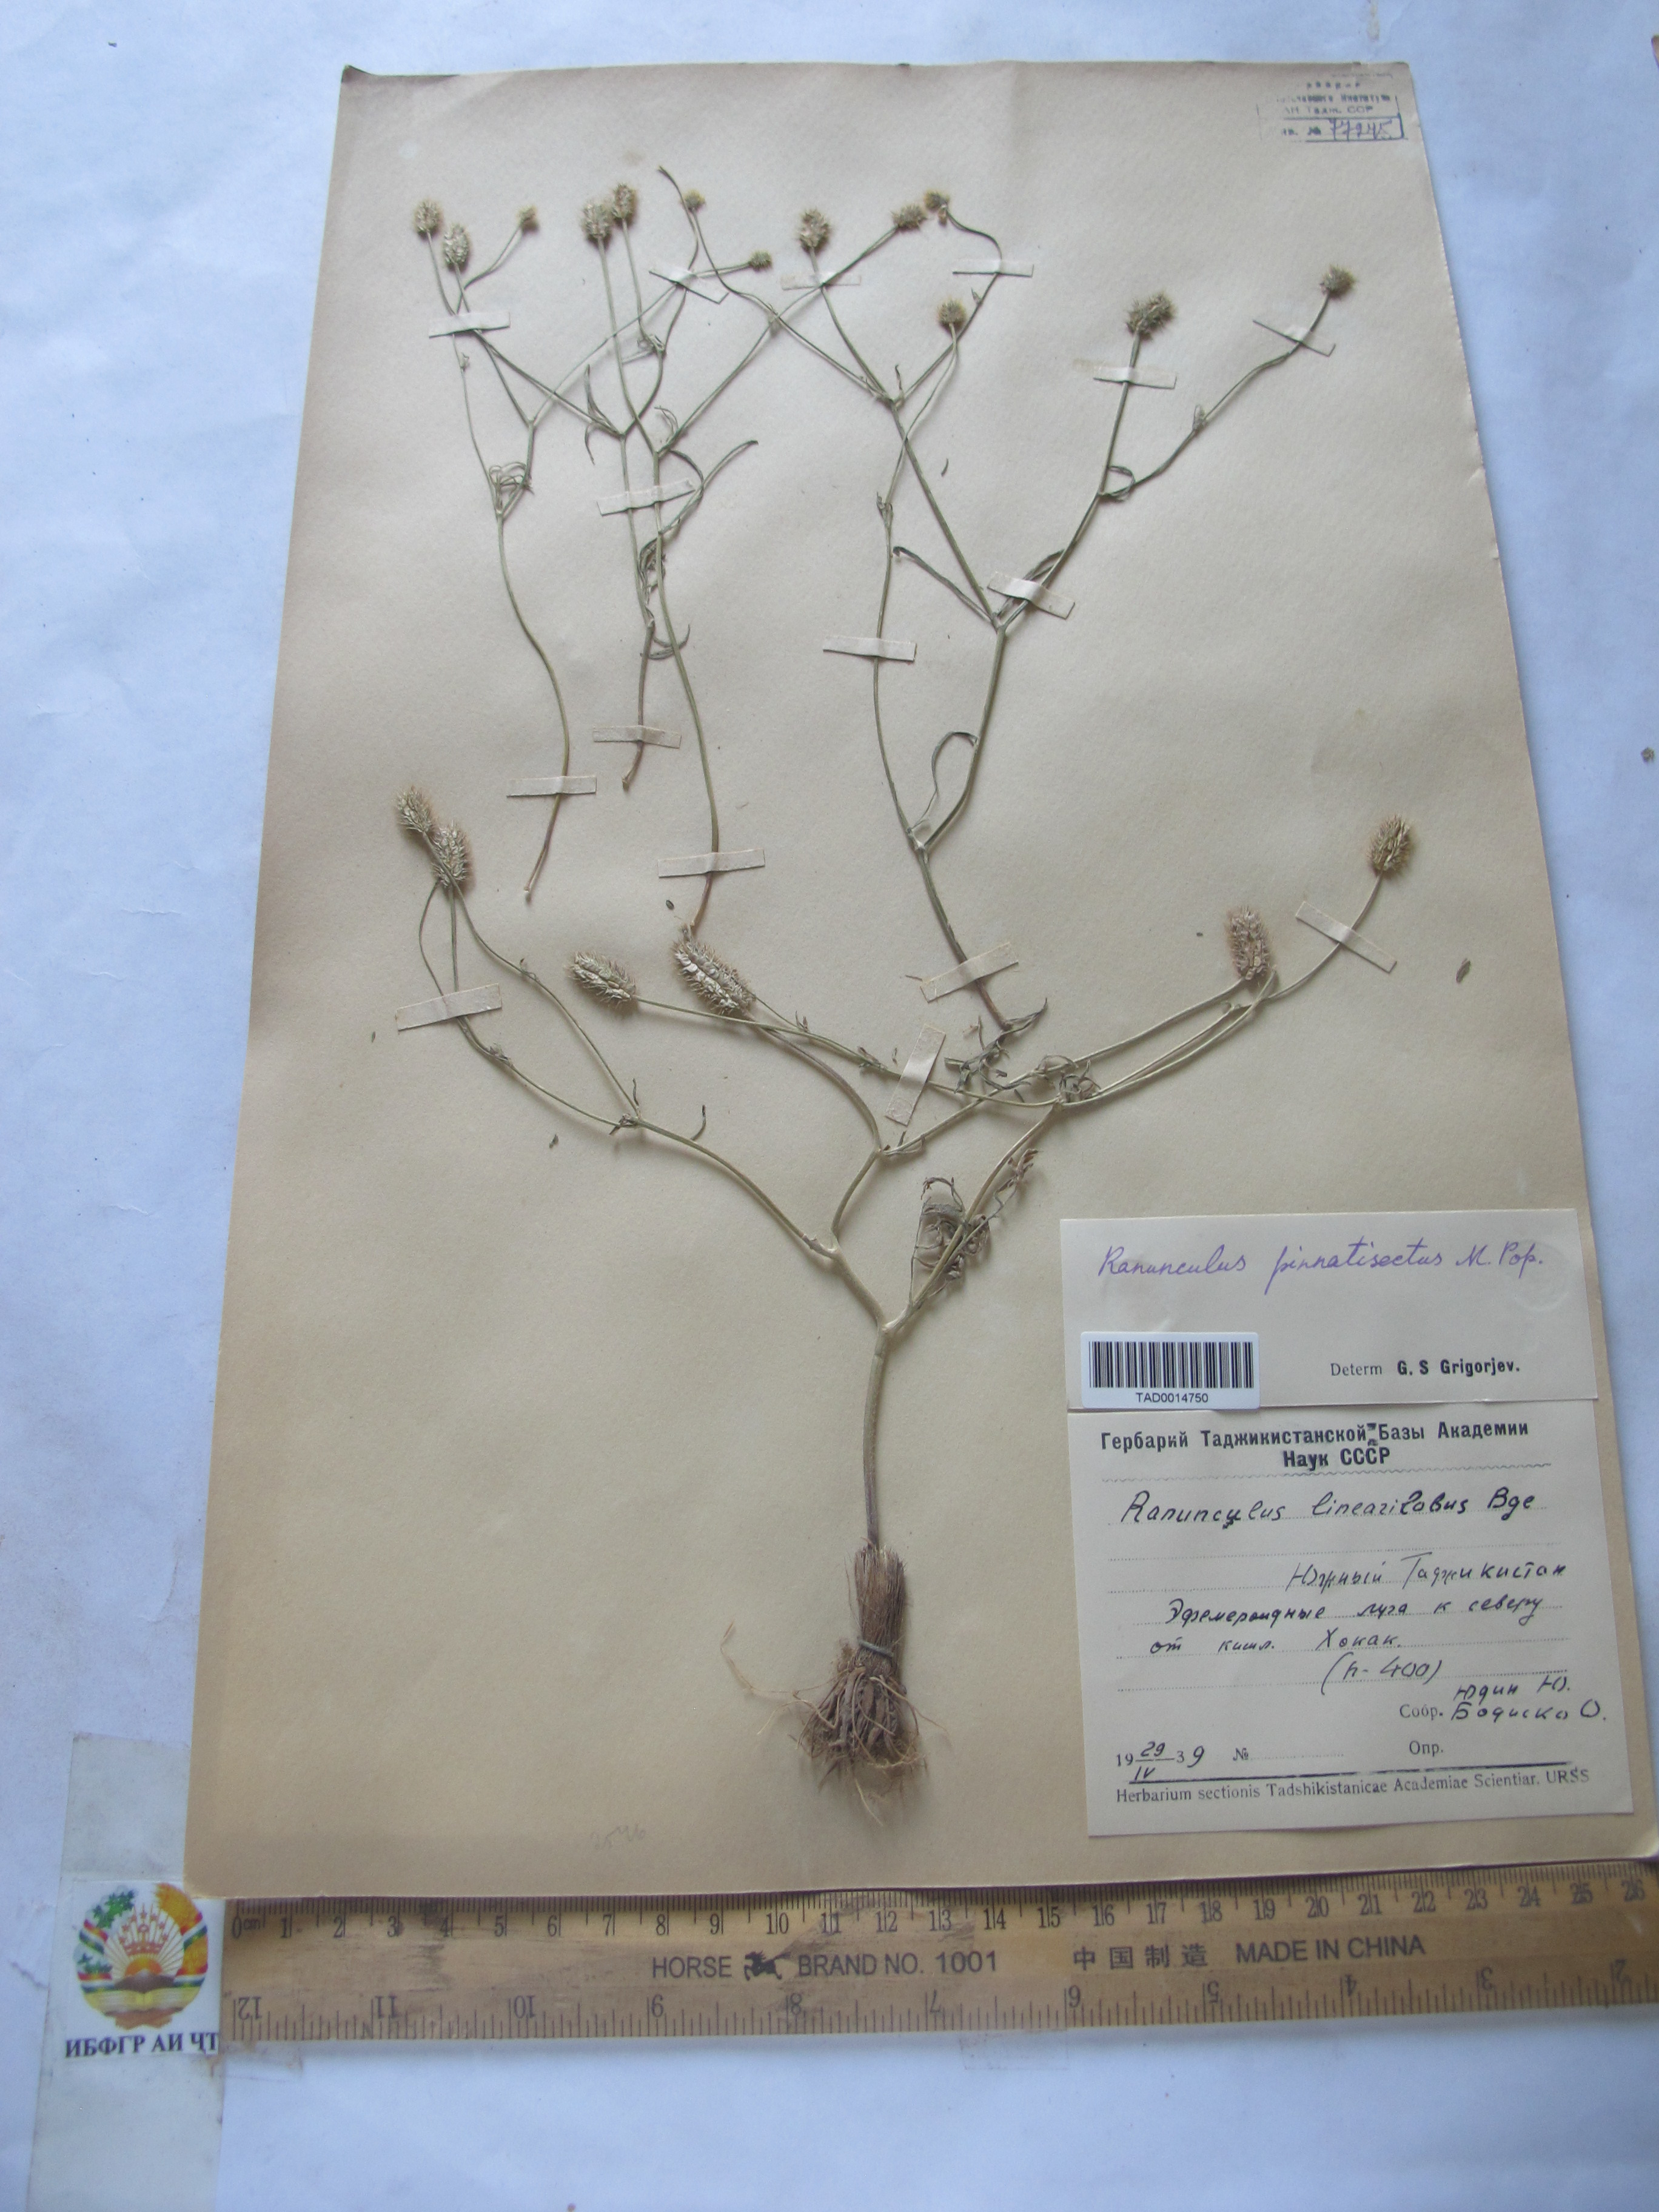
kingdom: Plantae
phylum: Tracheophyta
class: Magnoliopsida
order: Ranunculales
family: Ranunculaceae
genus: Ranunculus
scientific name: Ranunculus pinnatisectus
